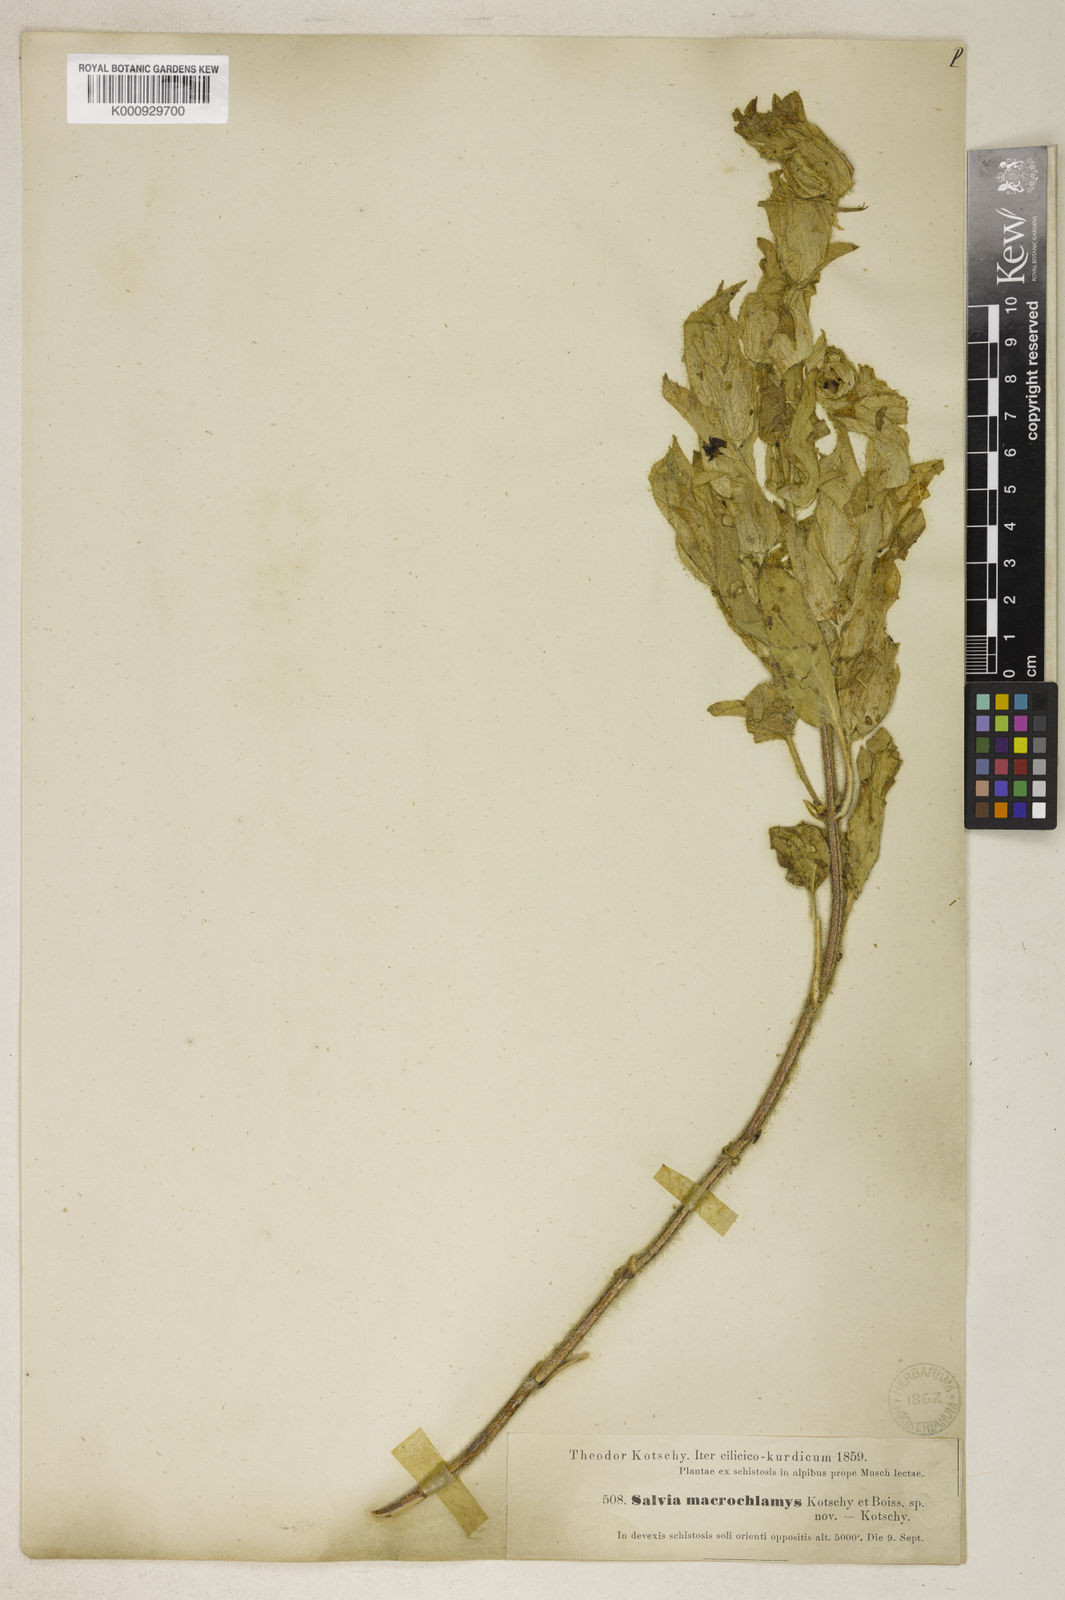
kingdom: Plantae
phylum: Tracheophyta
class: Magnoliopsida
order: Lamiales
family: Lamiaceae
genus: Salvia
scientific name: Salvia macrochlamys
